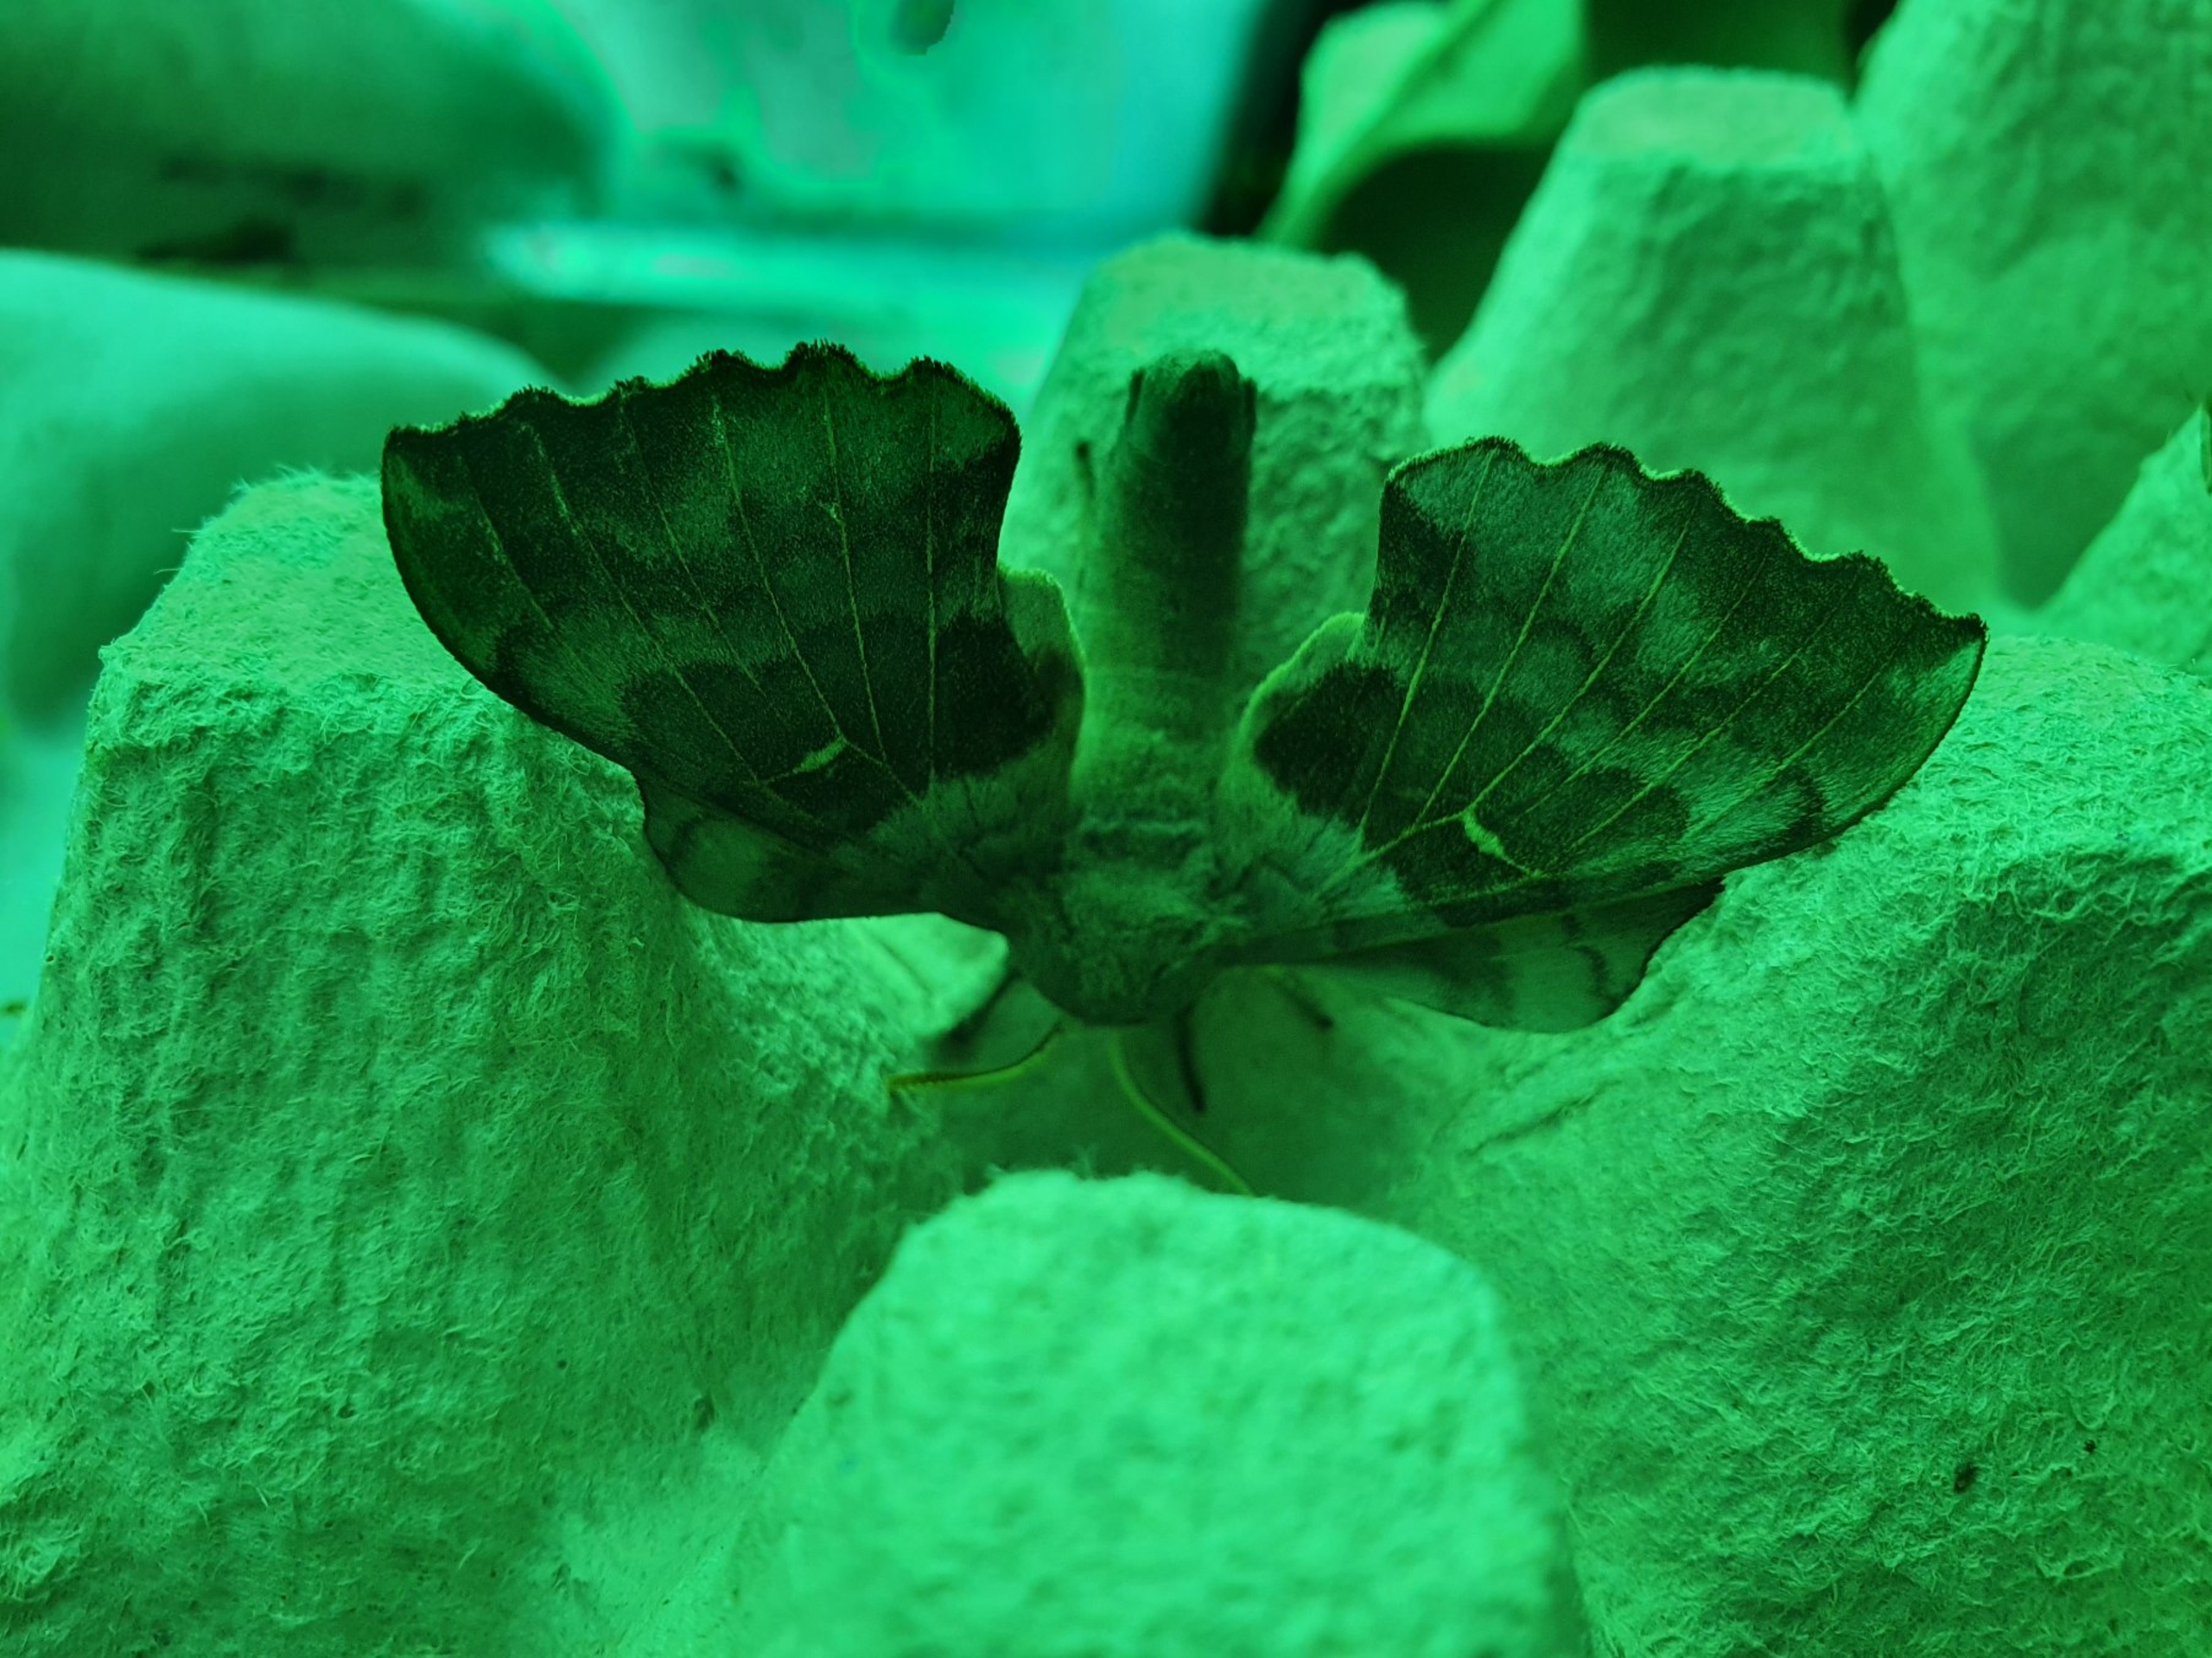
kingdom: Animalia
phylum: Arthropoda
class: Insecta
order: Lepidoptera
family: Sphingidae
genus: Laothoe
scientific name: Laothoe populi
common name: Poppelsværmer
